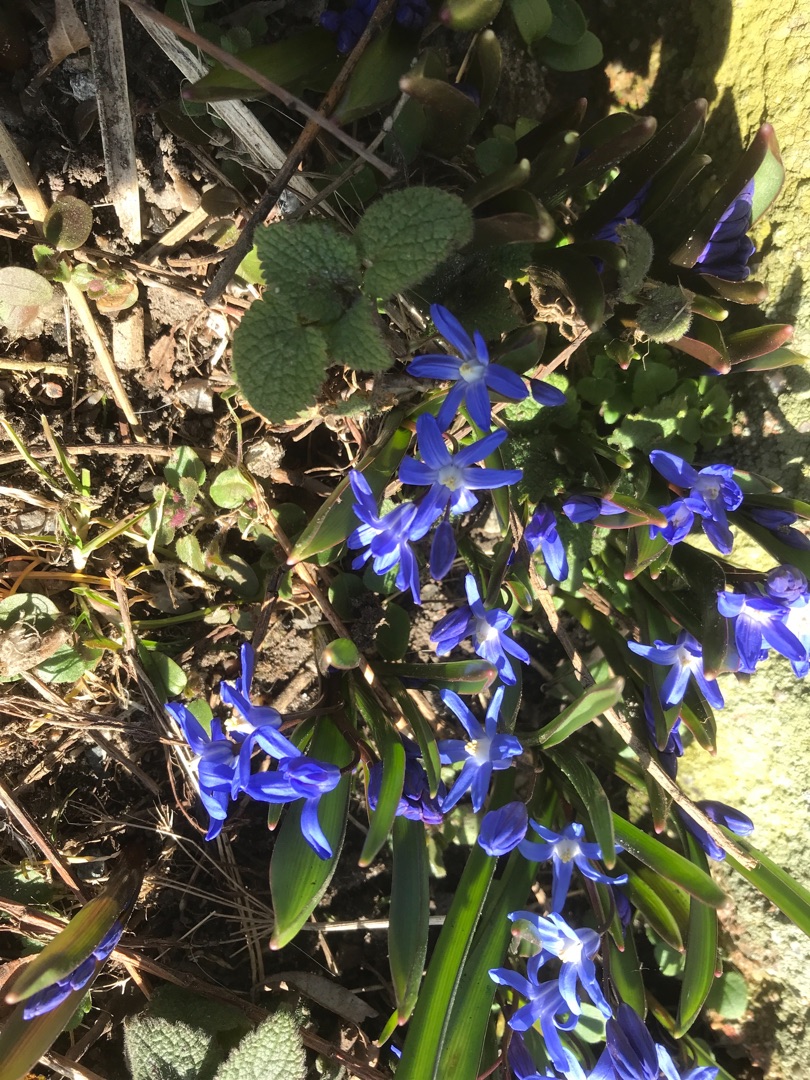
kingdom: Plantae
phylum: Tracheophyta
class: Liliopsida
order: Asparagales
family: Asparagaceae
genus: Scilla
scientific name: Scilla sardensis
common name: Liden snepryd
